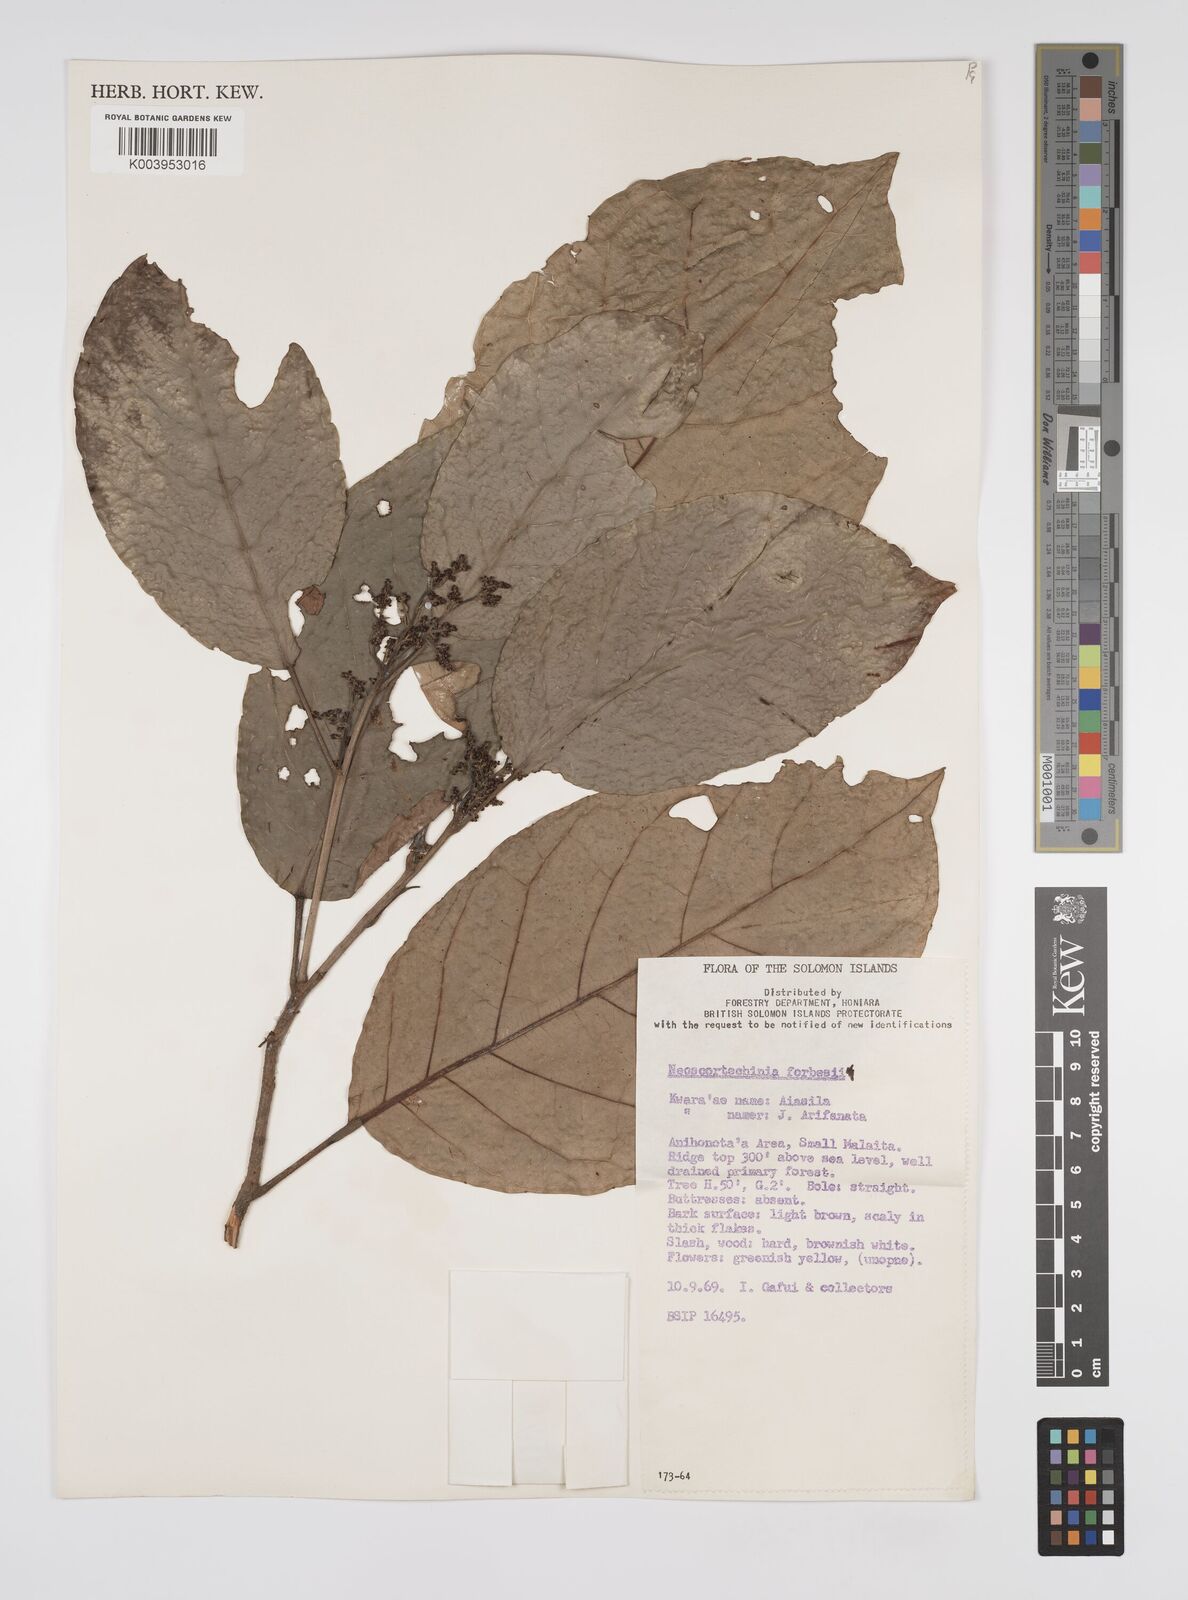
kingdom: Plantae
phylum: Tracheophyta
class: Magnoliopsida
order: Malpighiales
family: Euphorbiaceae
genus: Neoscortechinia
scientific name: Neoscortechinia forbesii
